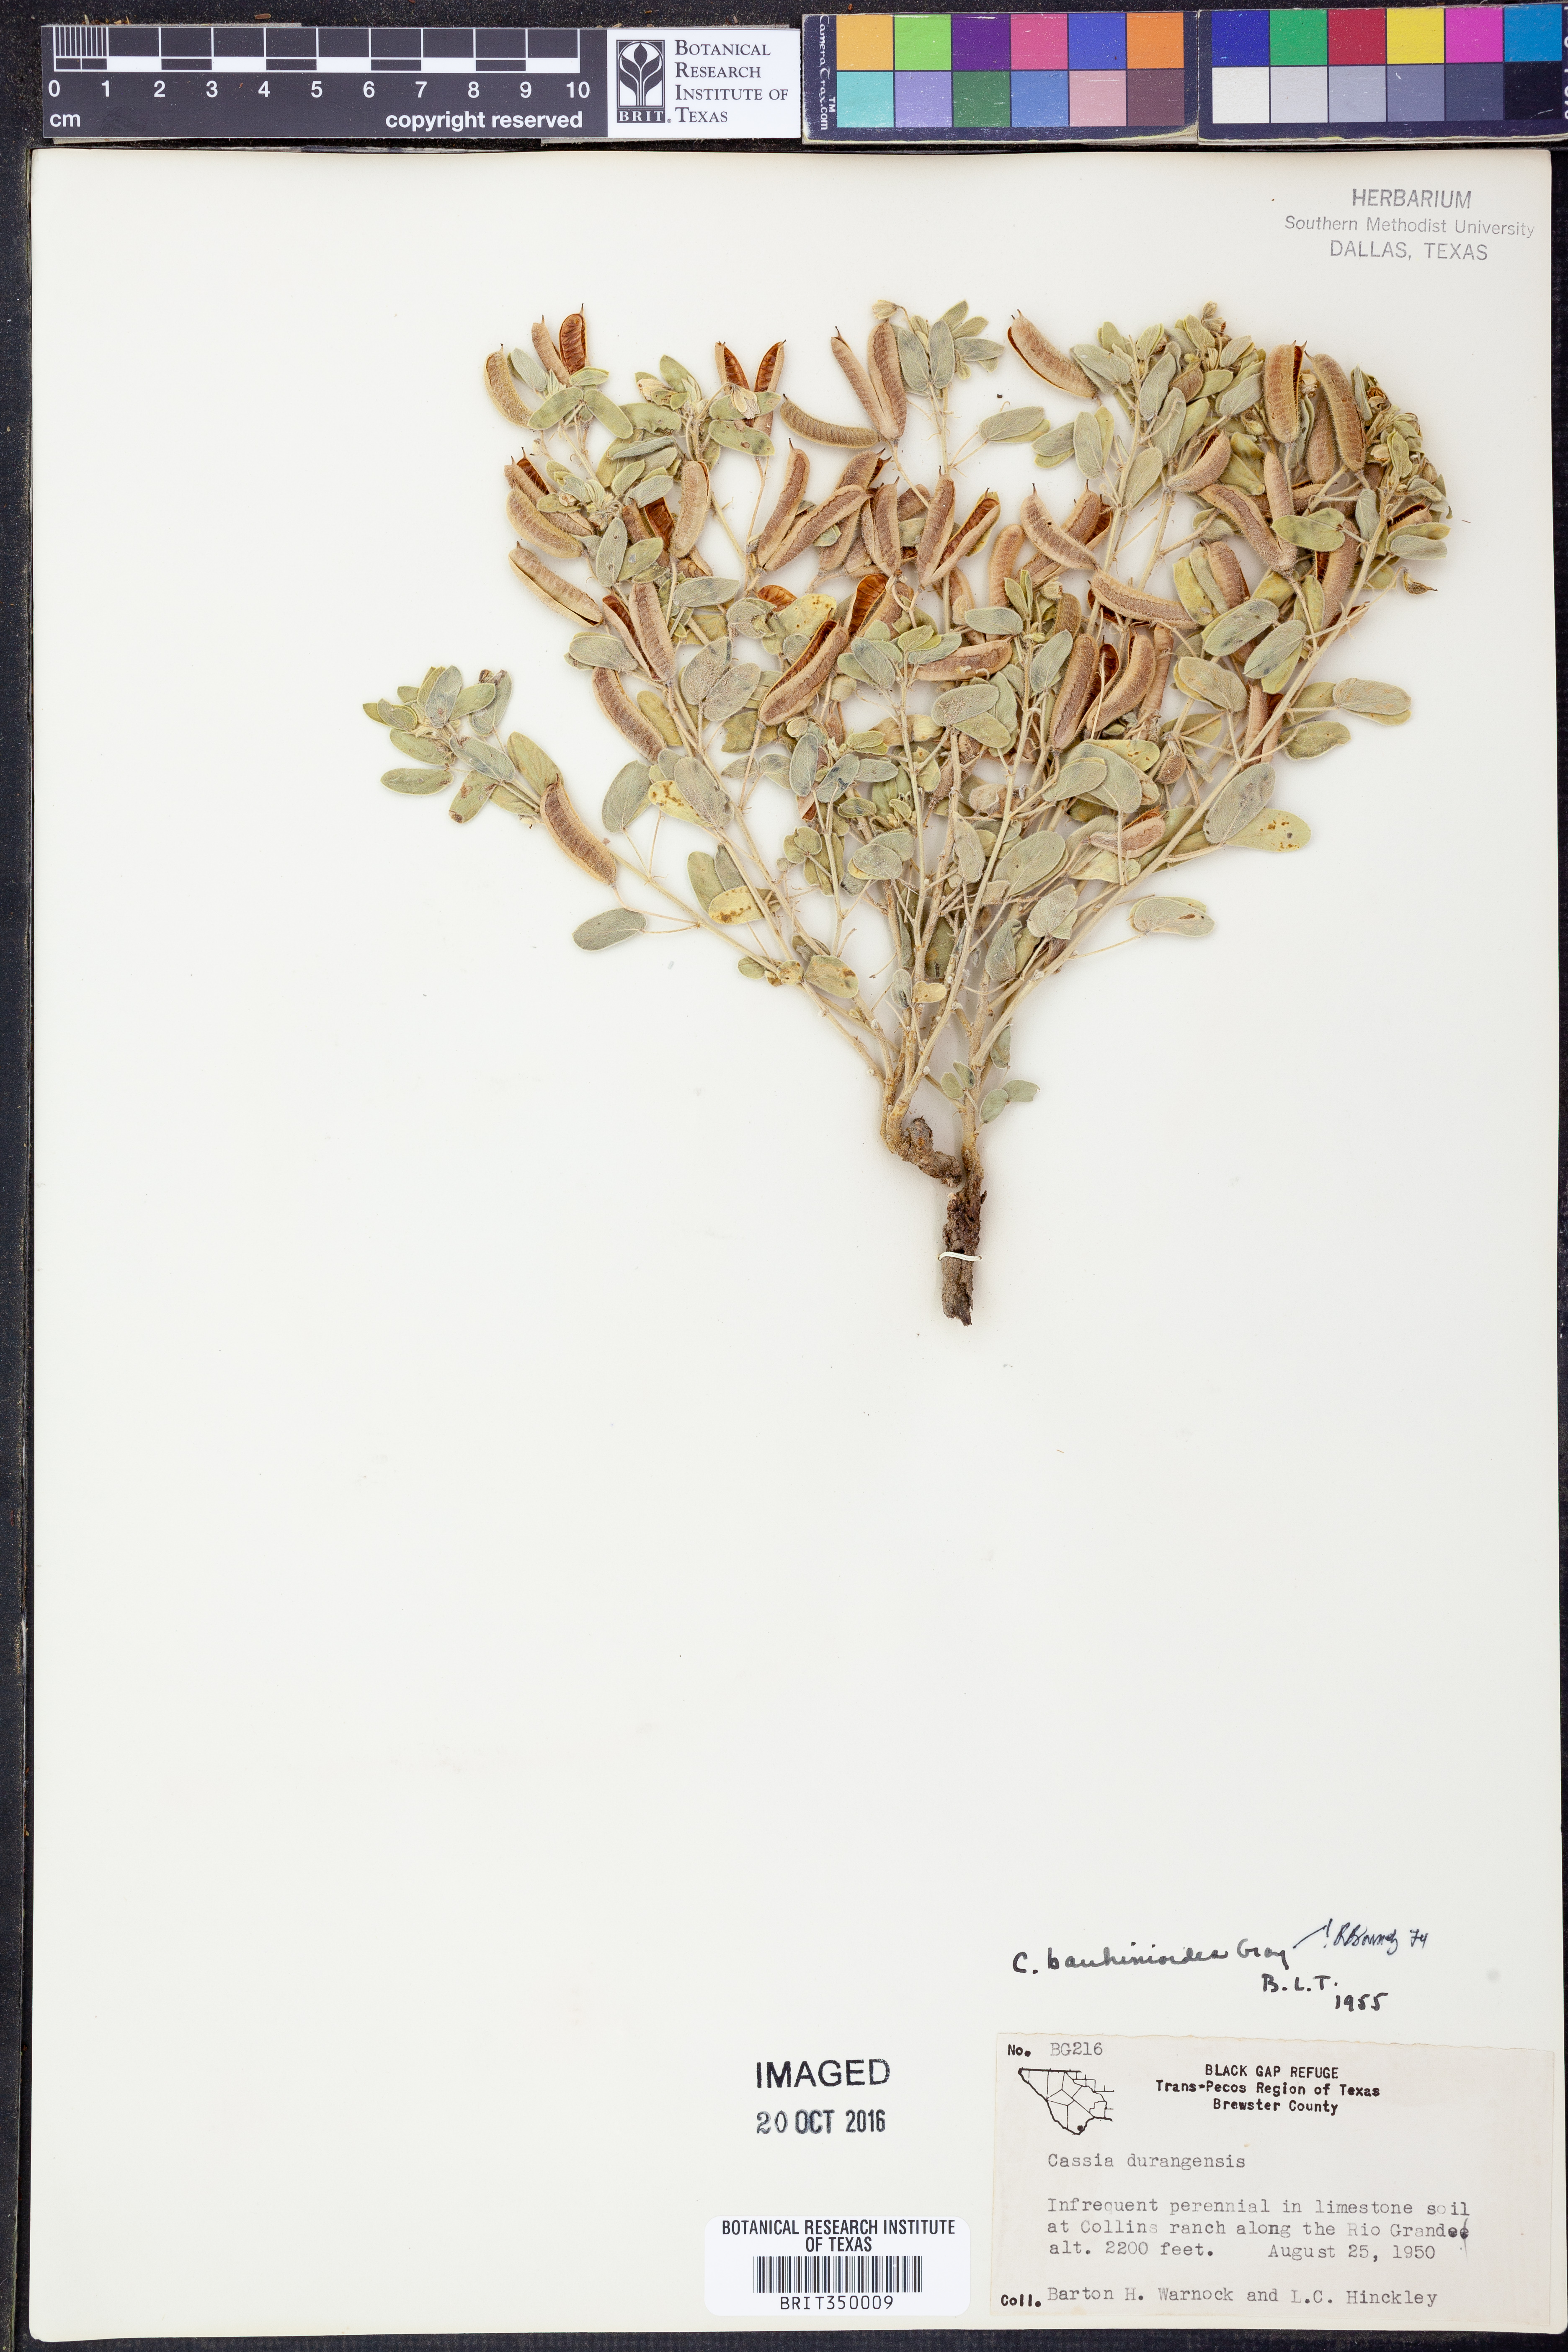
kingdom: Plantae
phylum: Tracheophyta
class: Magnoliopsida
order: Fabales
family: Fabaceae
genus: Senna
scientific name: Senna bauhinioides
